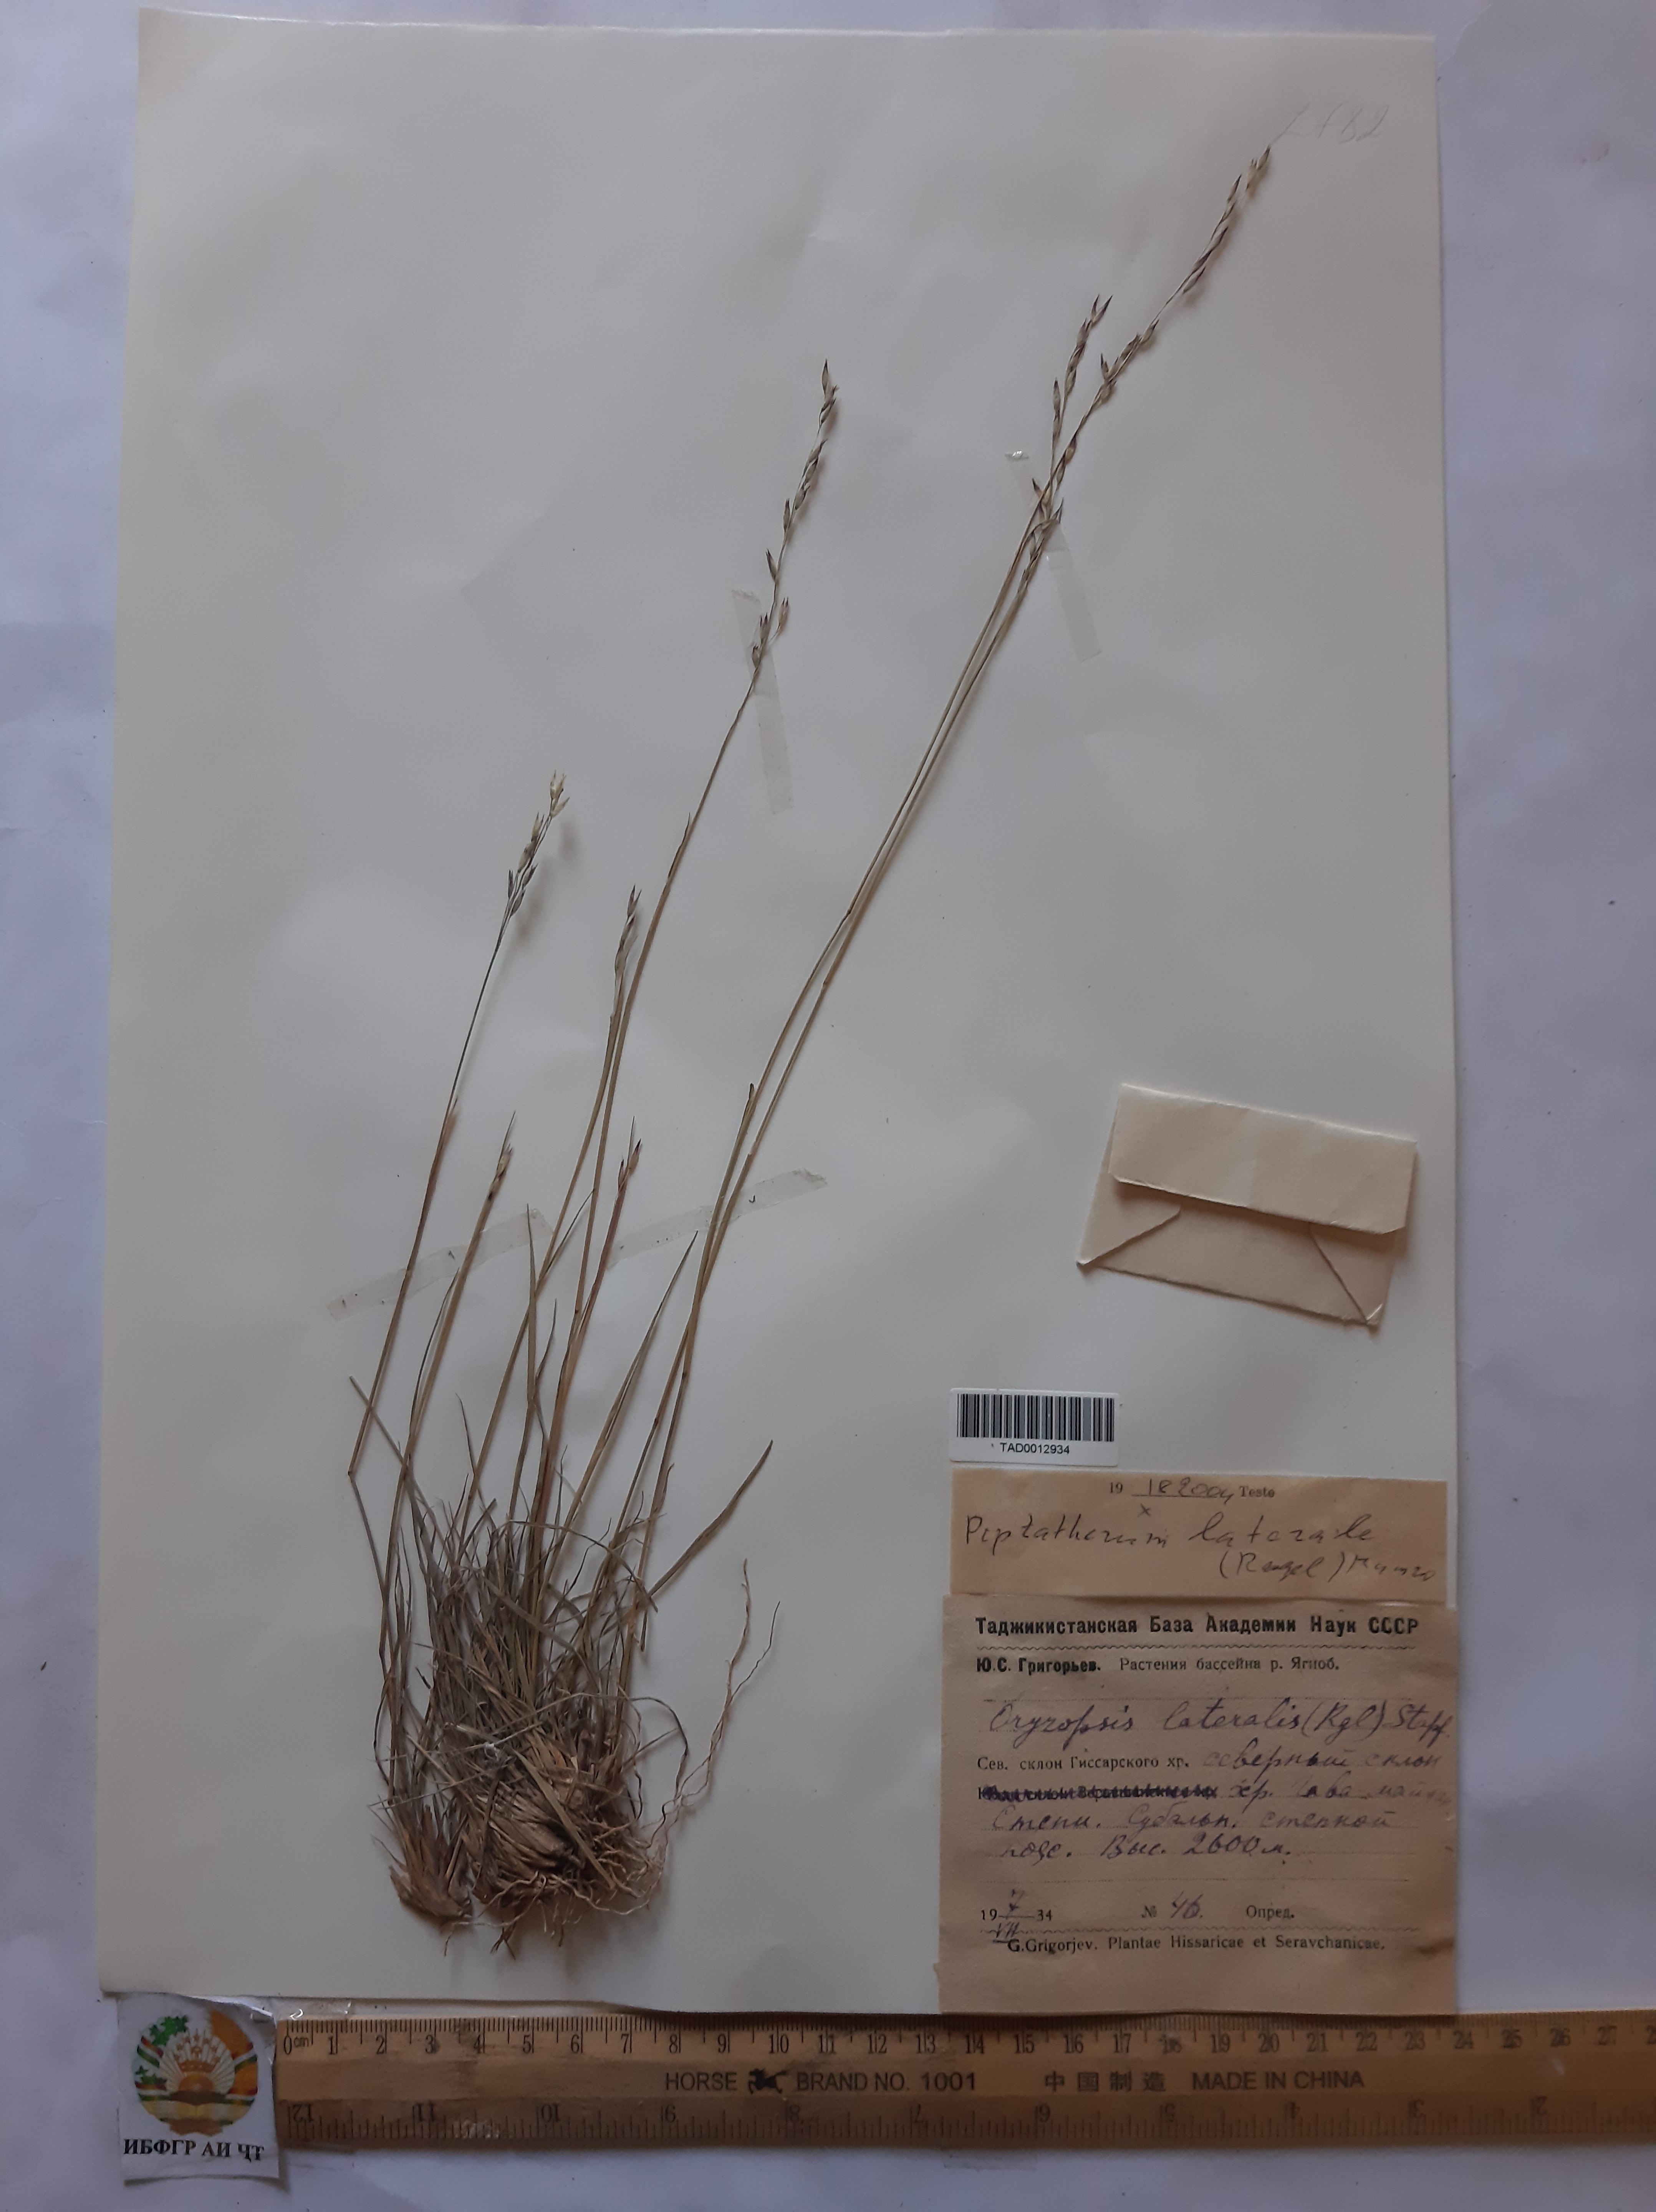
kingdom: Plantae
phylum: Tracheophyta
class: Liliopsida
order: Poales
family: Poaceae
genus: Piptatherum
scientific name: Piptatherum laterale
